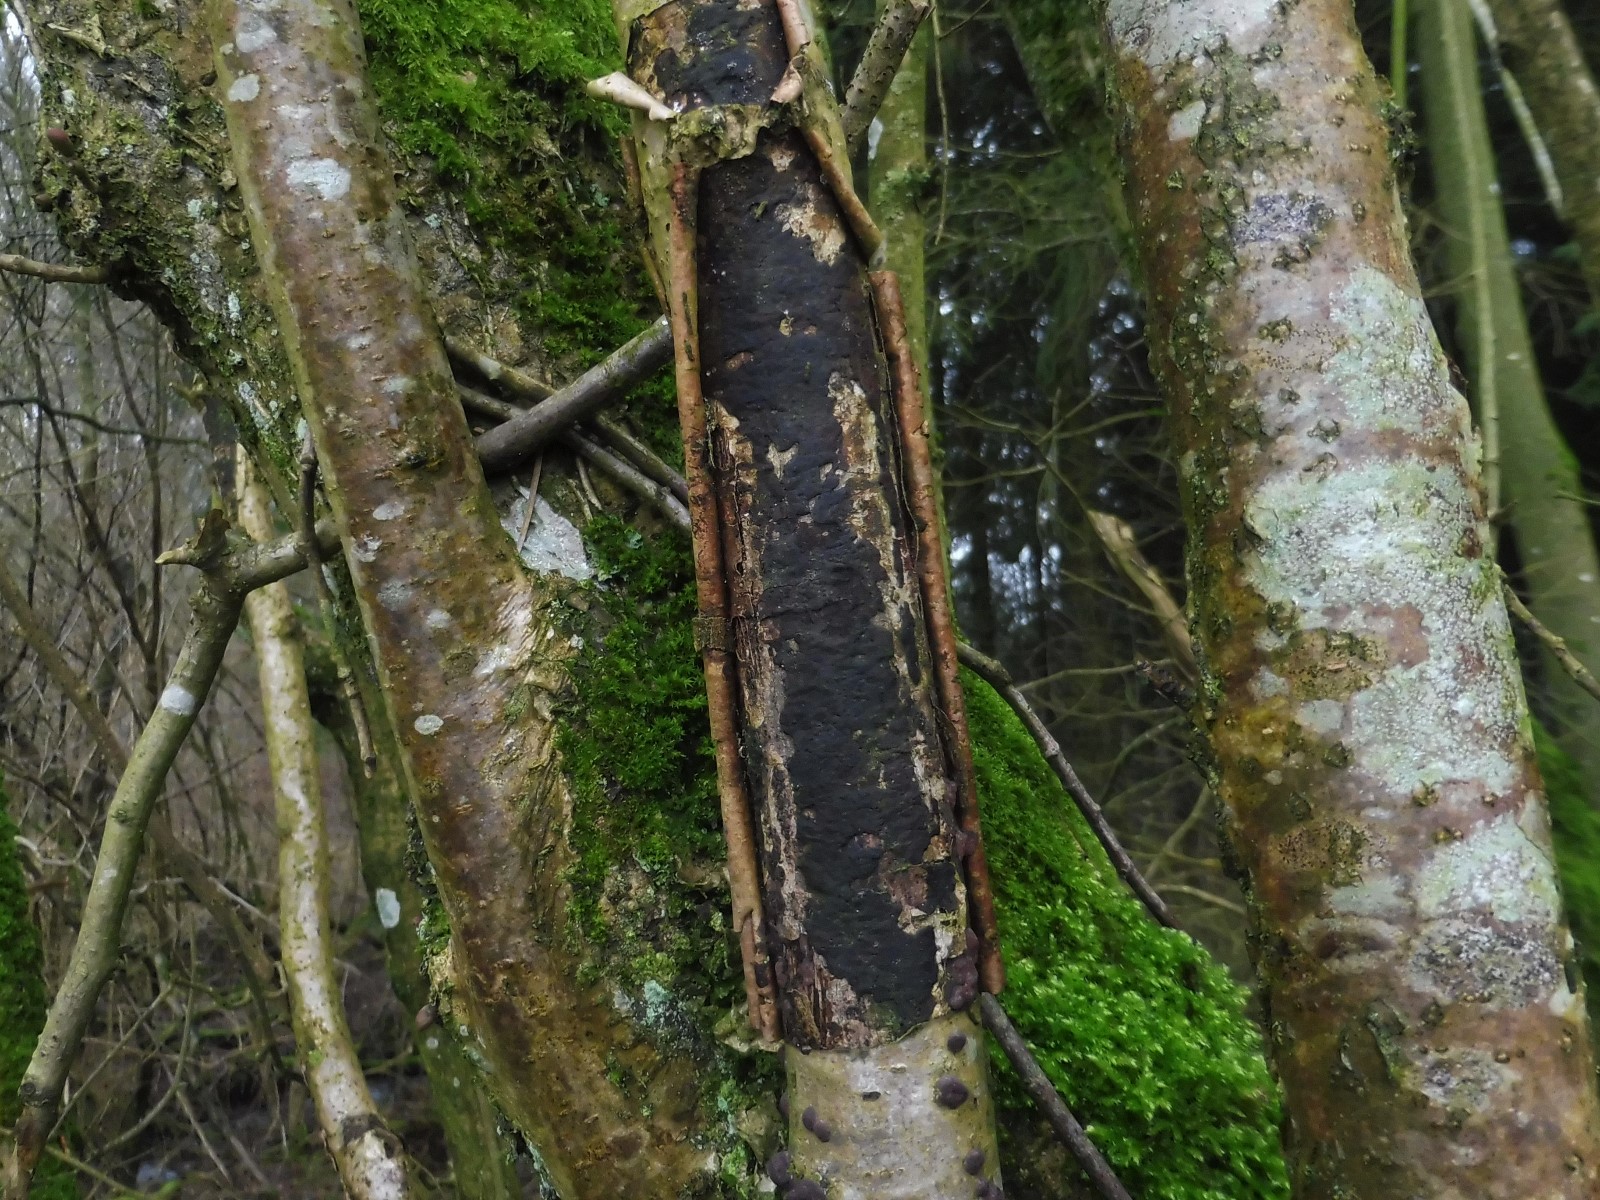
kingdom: Fungi
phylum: Ascomycota
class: Sordariomycetes
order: Xylariales
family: Diatrypaceae
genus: Diatrype
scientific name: Diatrype
